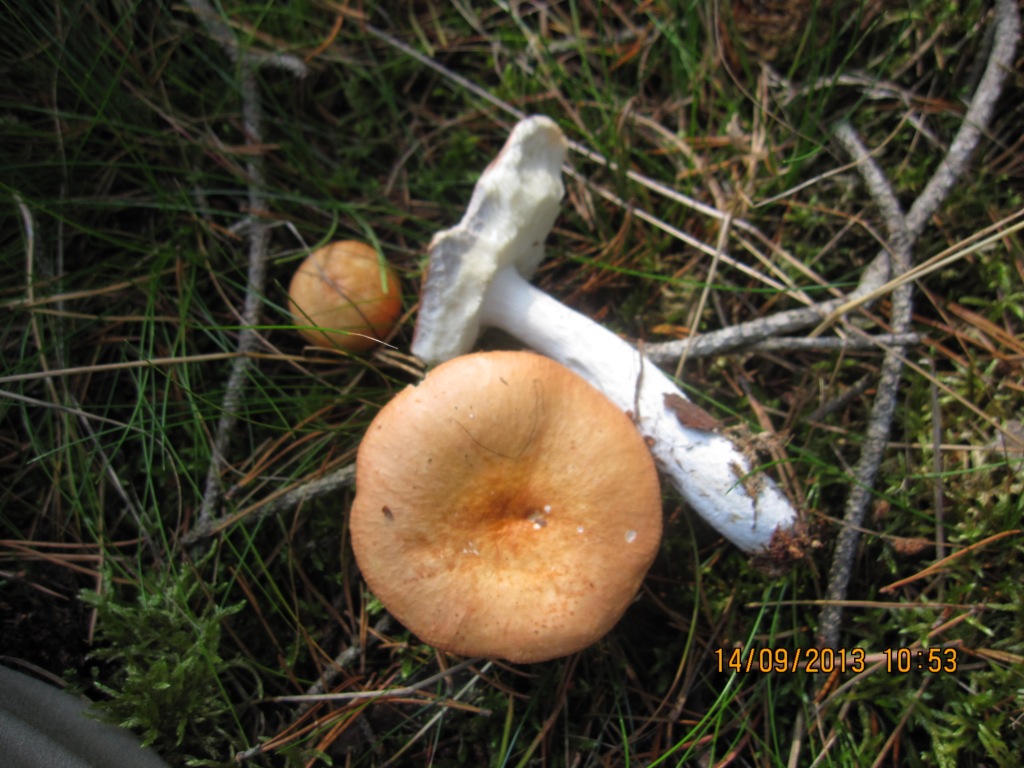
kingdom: Fungi
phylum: Basidiomycota
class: Agaricomycetes
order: Russulales
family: Russulaceae
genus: Russula
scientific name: Russula decolorans
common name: afblegende skørhat
